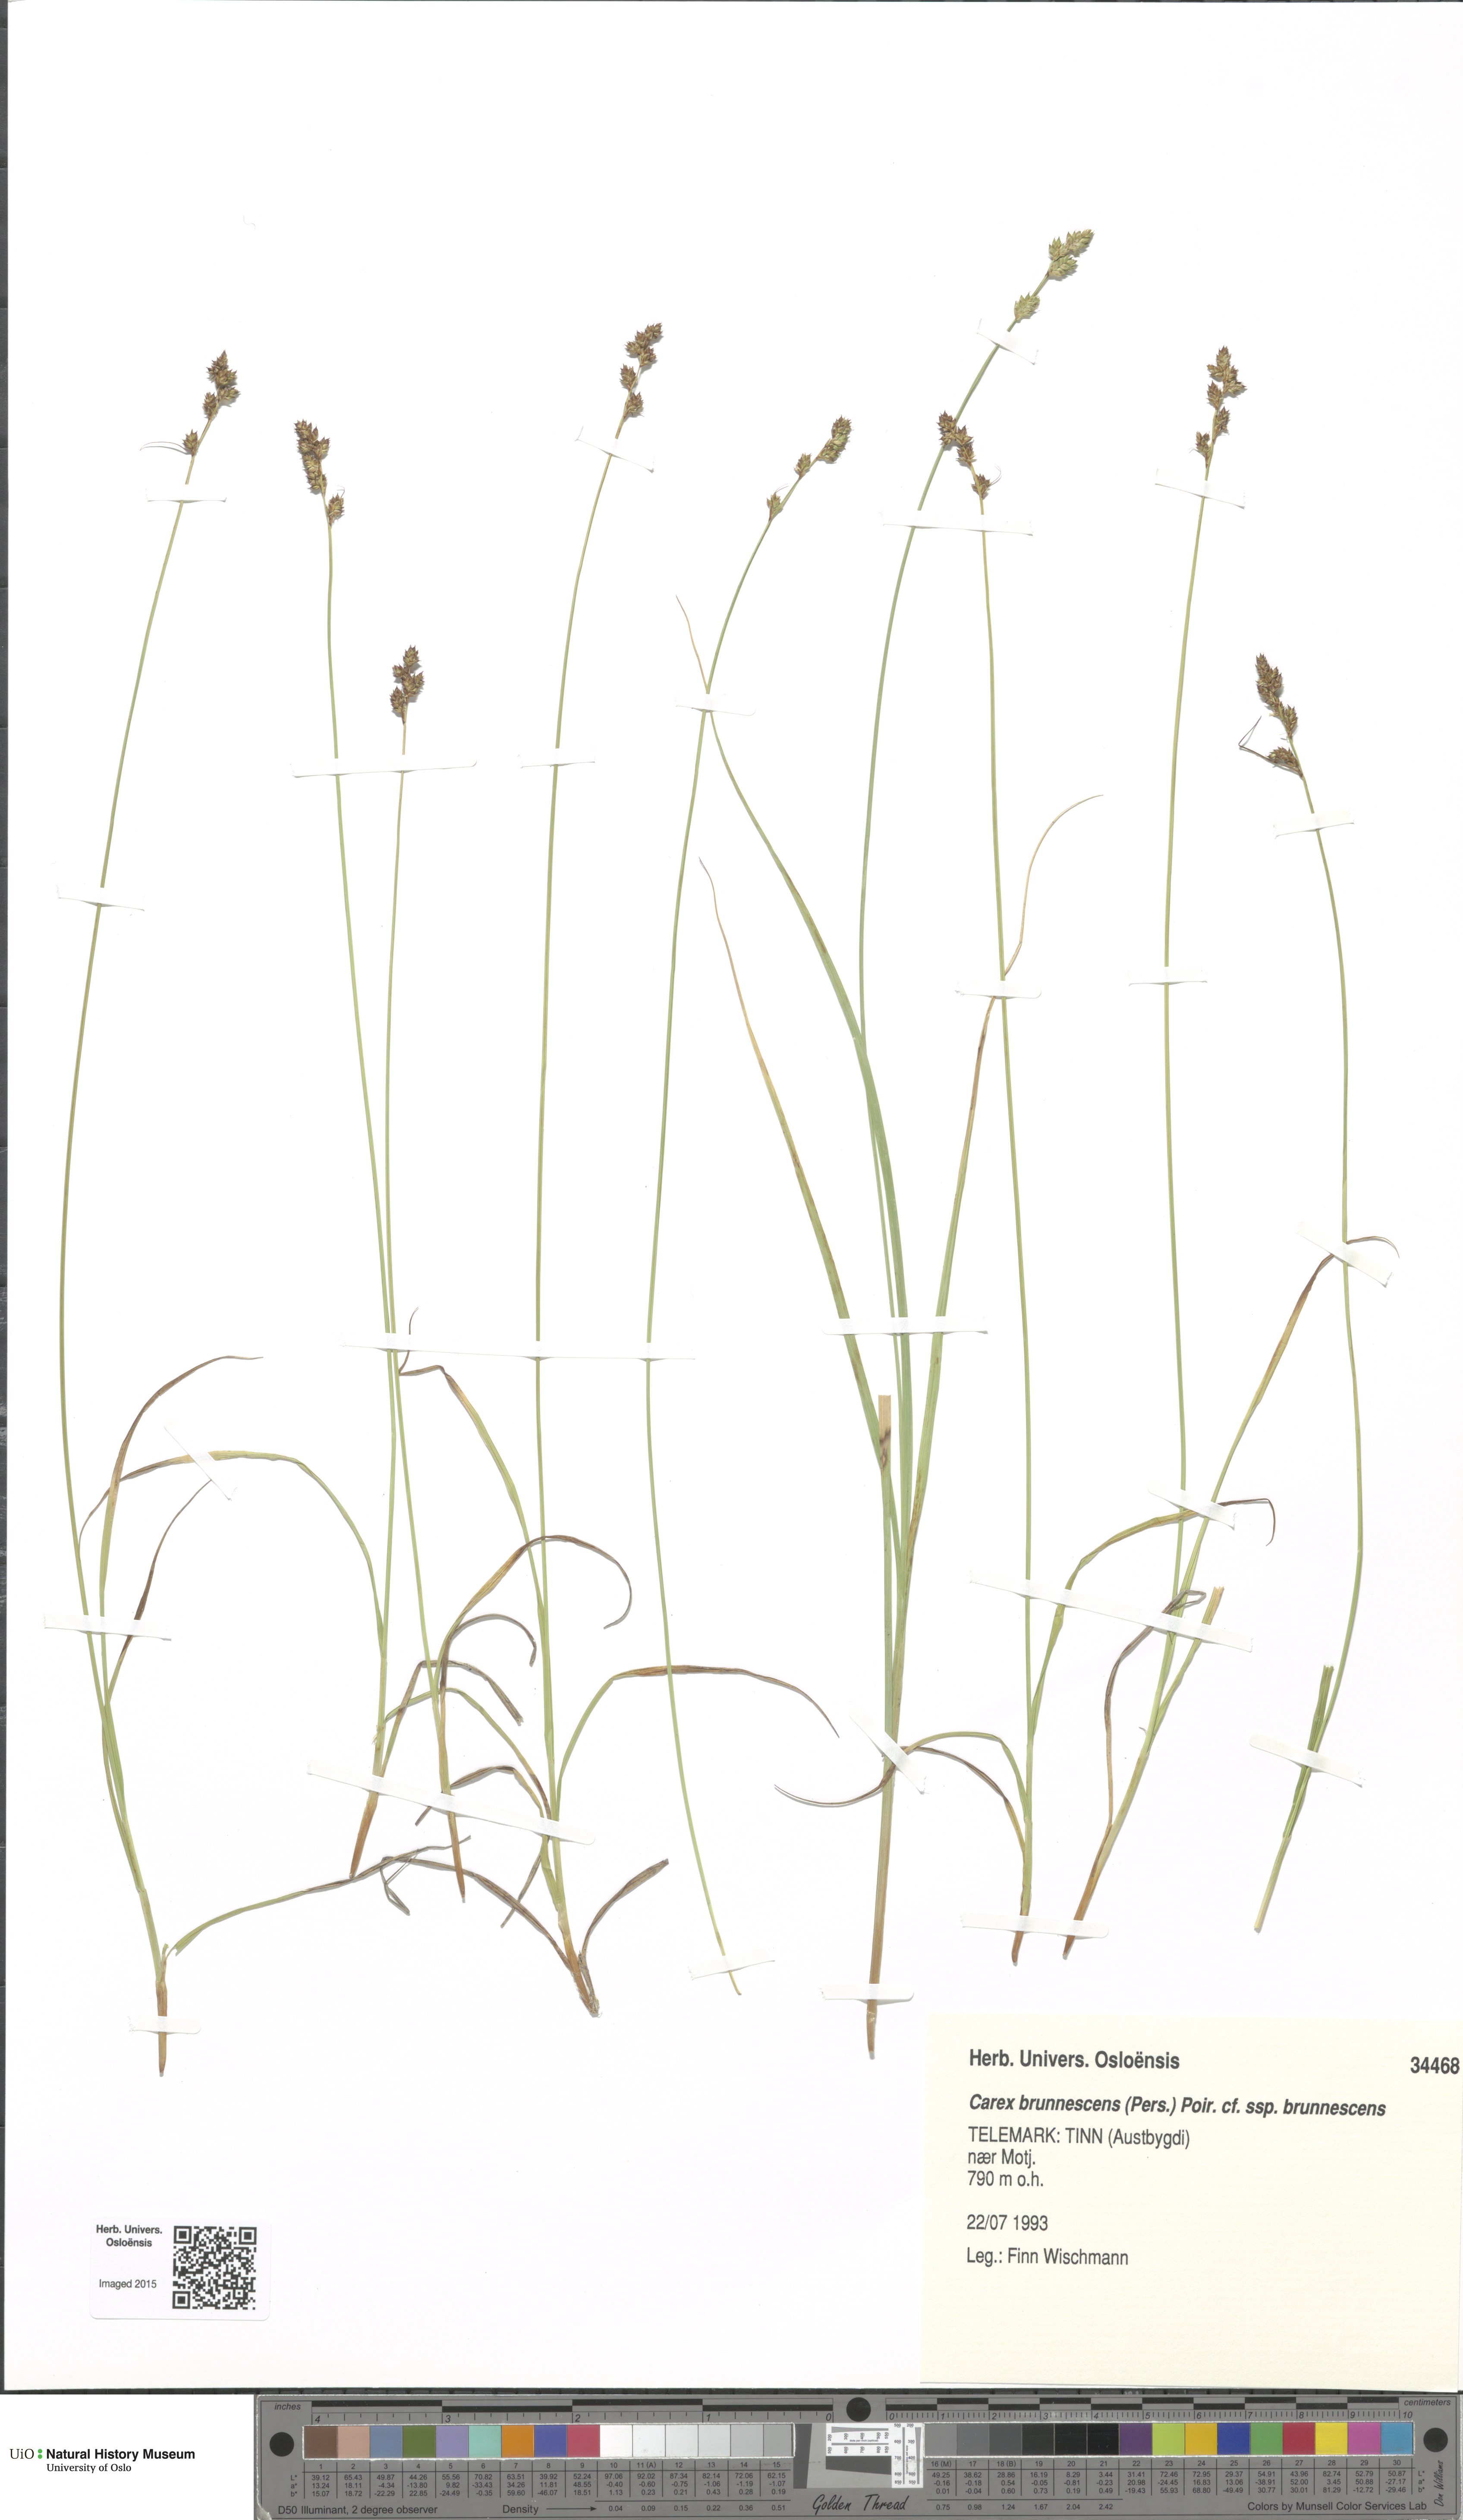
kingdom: Plantae
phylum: Tracheophyta
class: Liliopsida
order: Poales
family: Cyperaceae
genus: Carex
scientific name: Carex brunnescens
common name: Brown sedge
